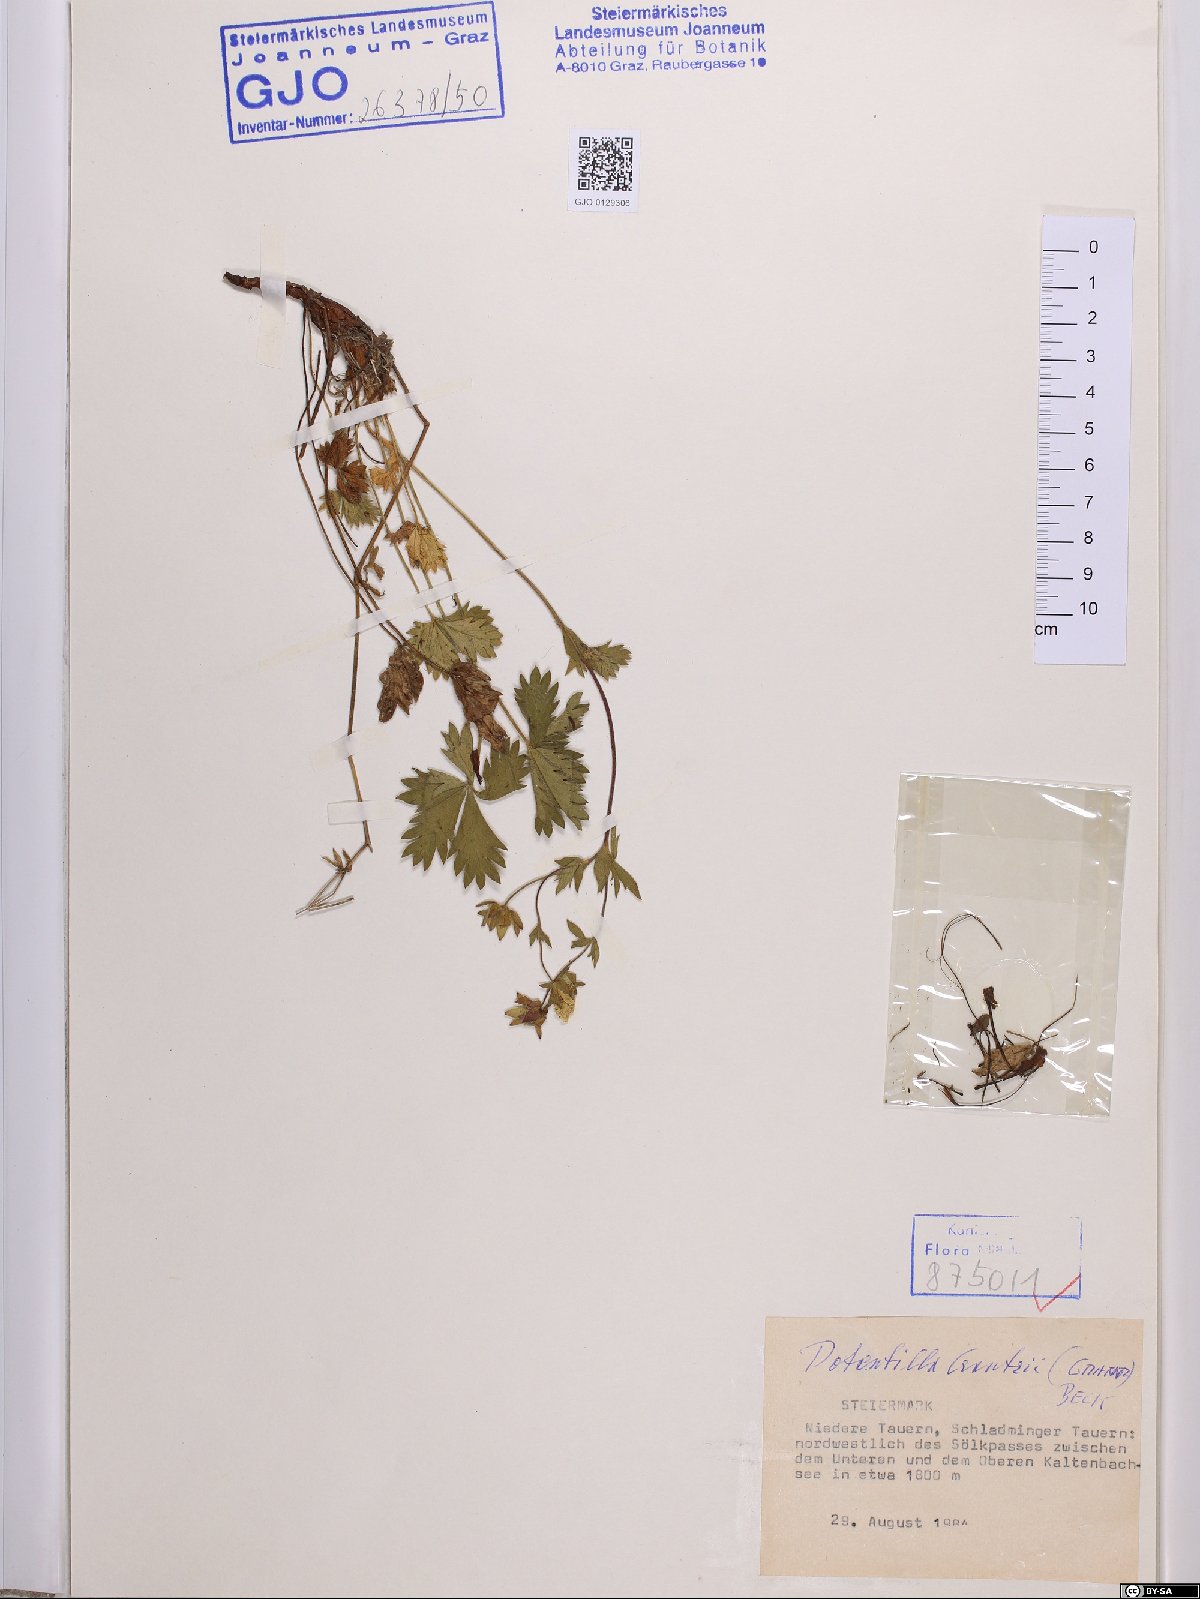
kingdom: Plantae
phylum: Tracheophyta
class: Magnoliopsida
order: Rosales
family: Rosaceae
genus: Potentilla
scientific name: Potentilla crantzii
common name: Alpine cinquefoil
